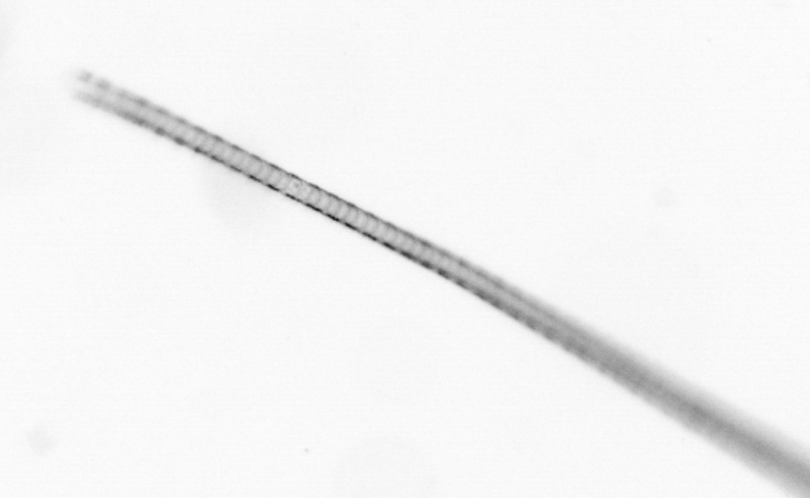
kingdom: Chromista
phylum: Ochrophyta
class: Bacillariophyceae
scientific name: Bacillariophyceae
